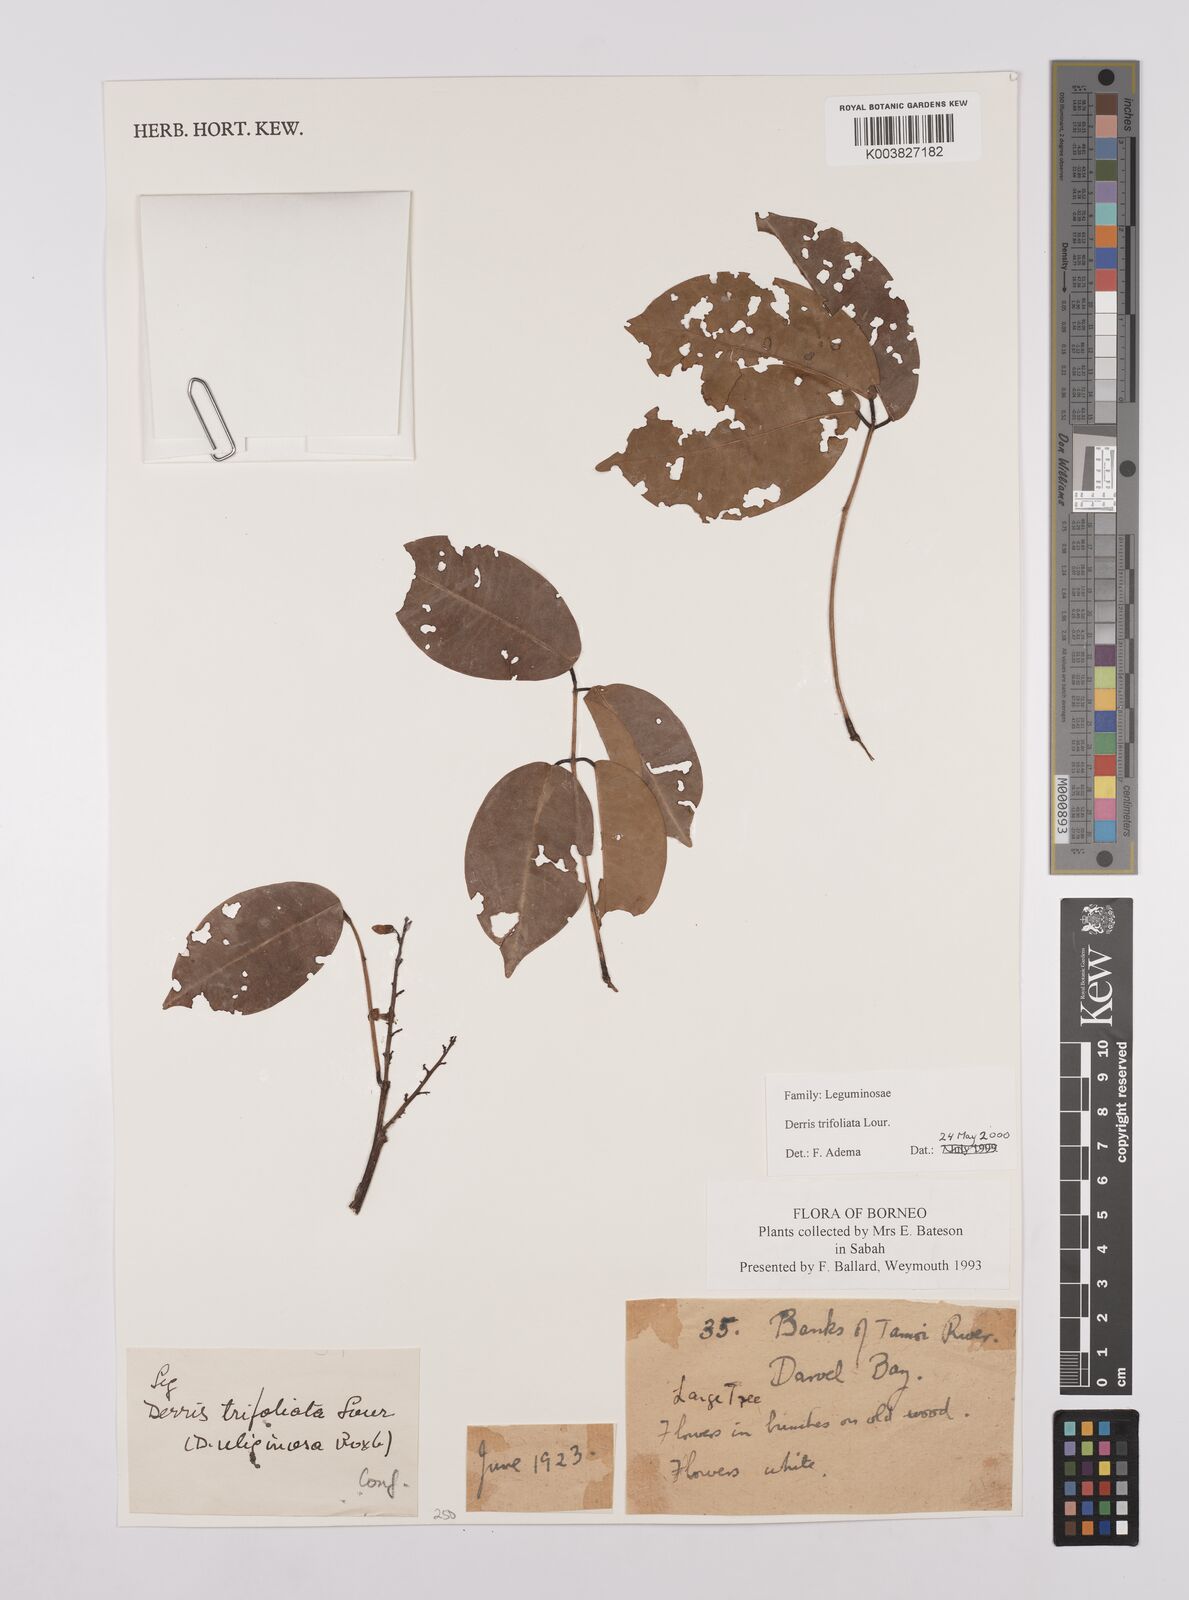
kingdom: Plantae
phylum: Tracheophyta
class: Magnoliopsida
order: Fabales
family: Fabaceae
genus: Derris
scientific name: Derris trifoliata
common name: Three-leaf derris
